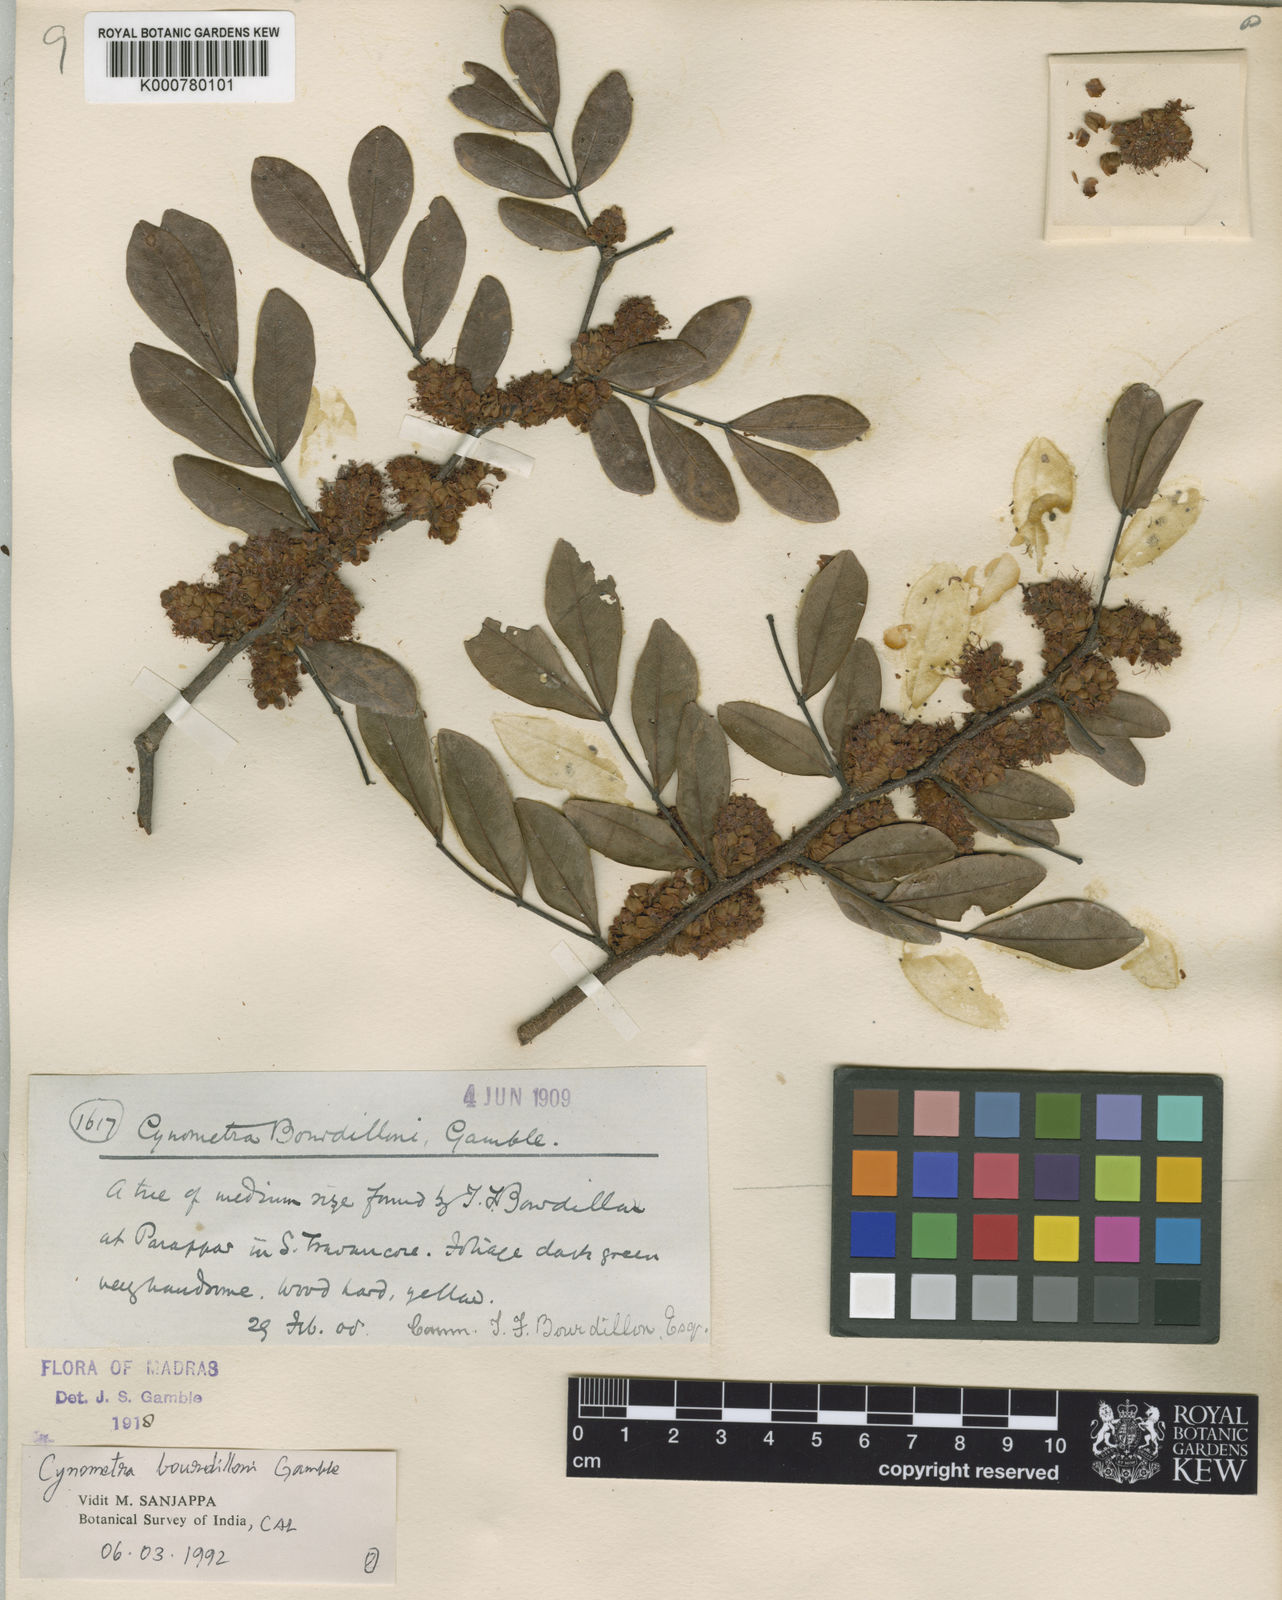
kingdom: Plantae
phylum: Tracheophyta
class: Magnoliopsida
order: Fabales
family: Fabaceae
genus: Cynometra
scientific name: Cynometra bourdillonii
